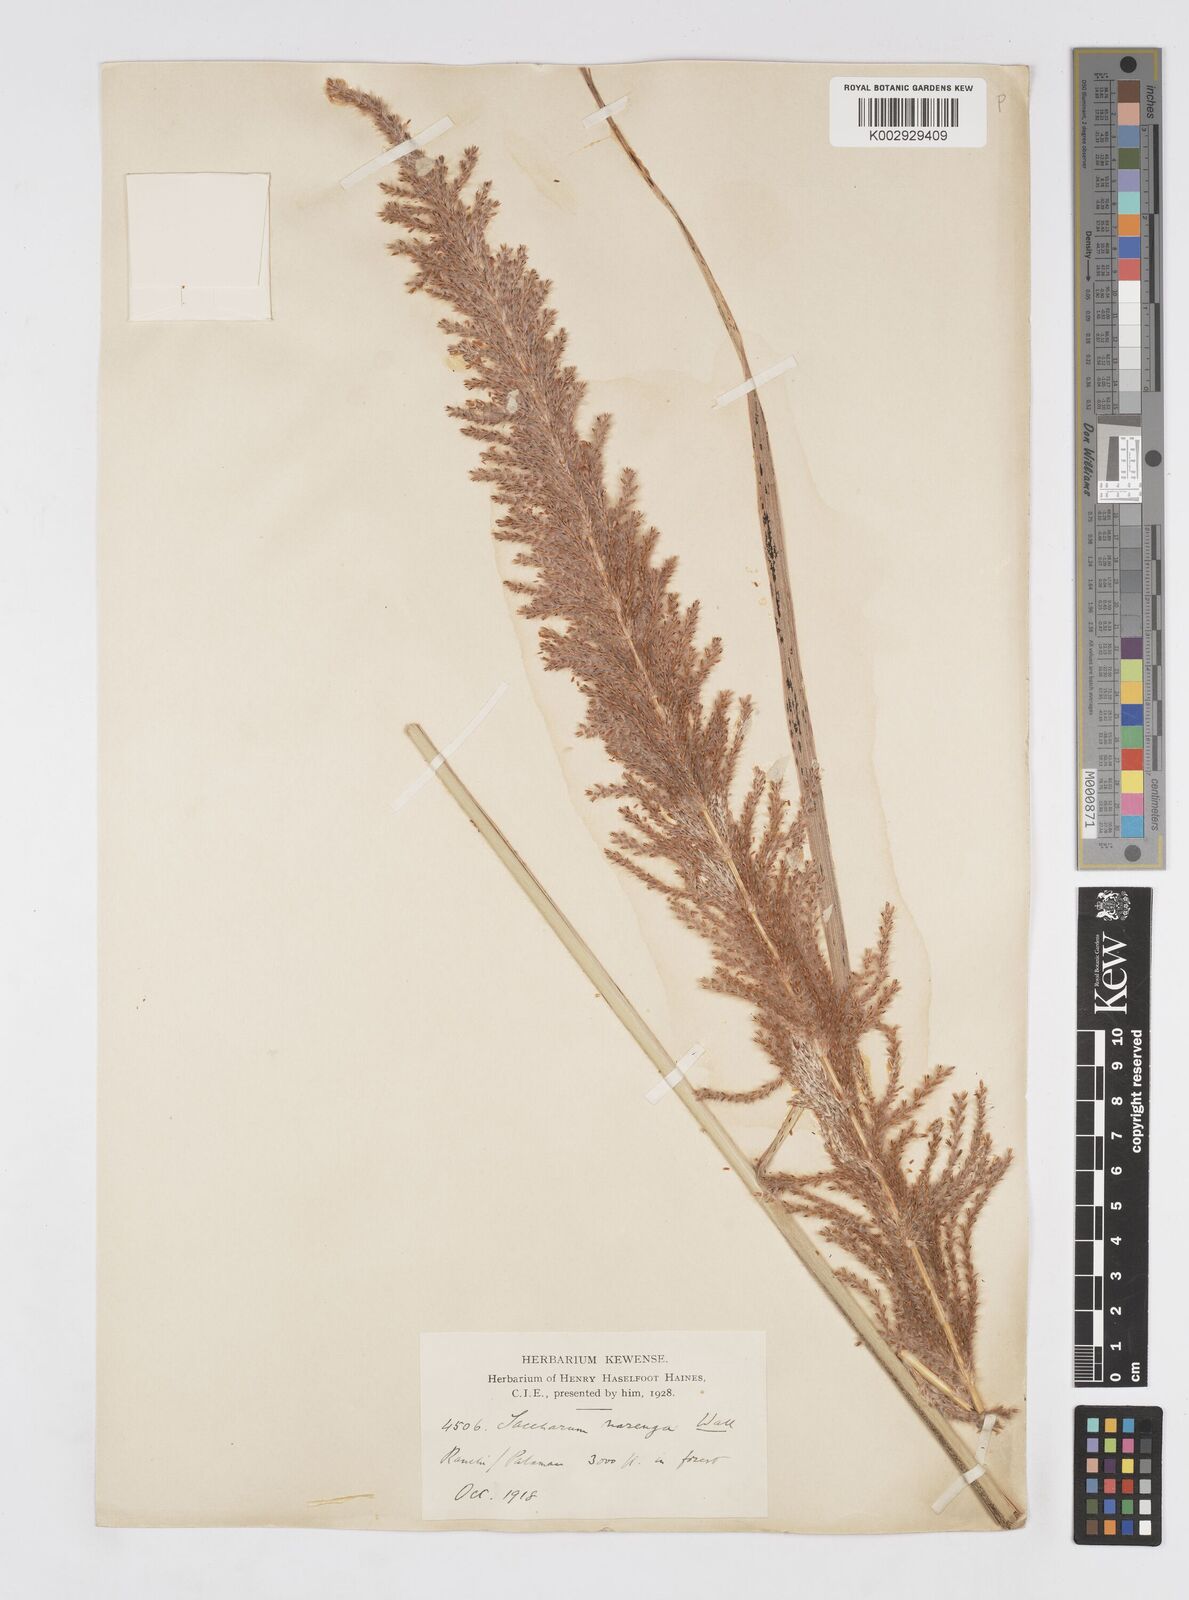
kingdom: Plantae
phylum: Tracheophyta
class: Liliopsida
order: Poales
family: Poaceae
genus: Narenga
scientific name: Narenga porphyrocoma
